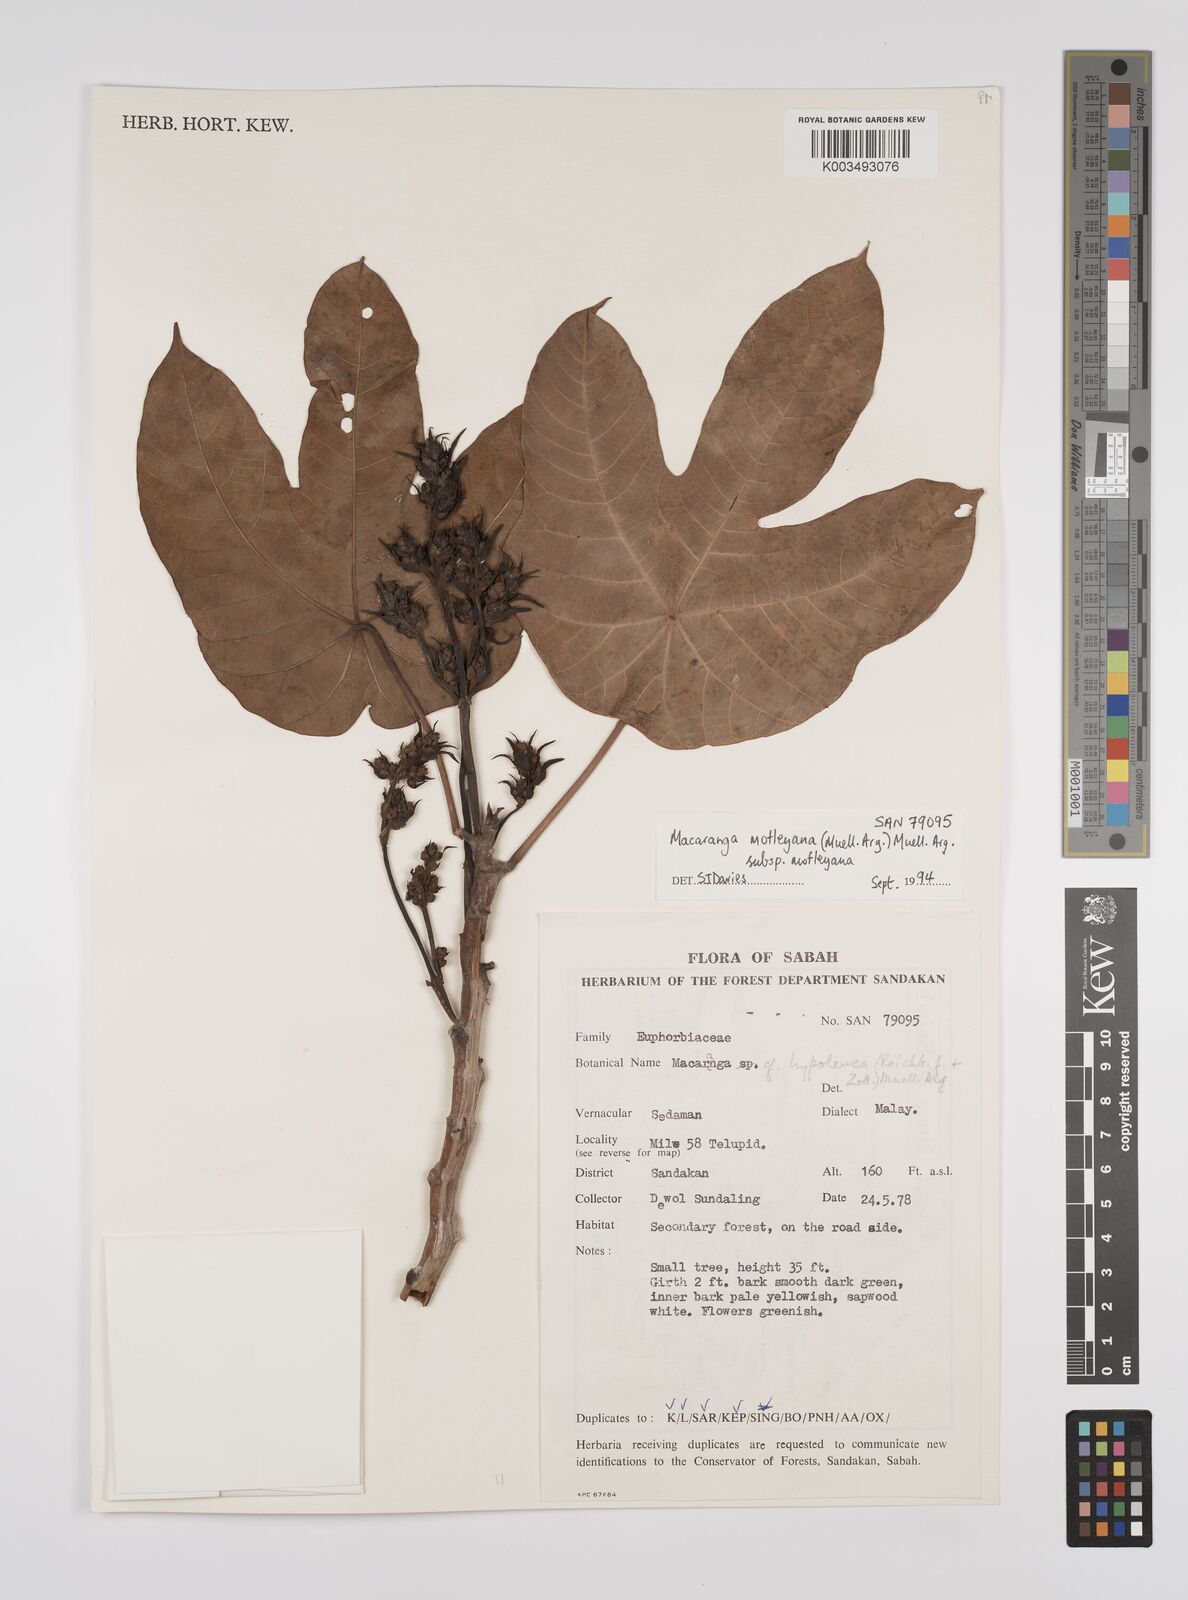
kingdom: Plantae
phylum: Tracheophyta
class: Magnoliopsida
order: Malpighiales
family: Euphorbiaceae
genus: Macaranga
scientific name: Macaranga motleyana
